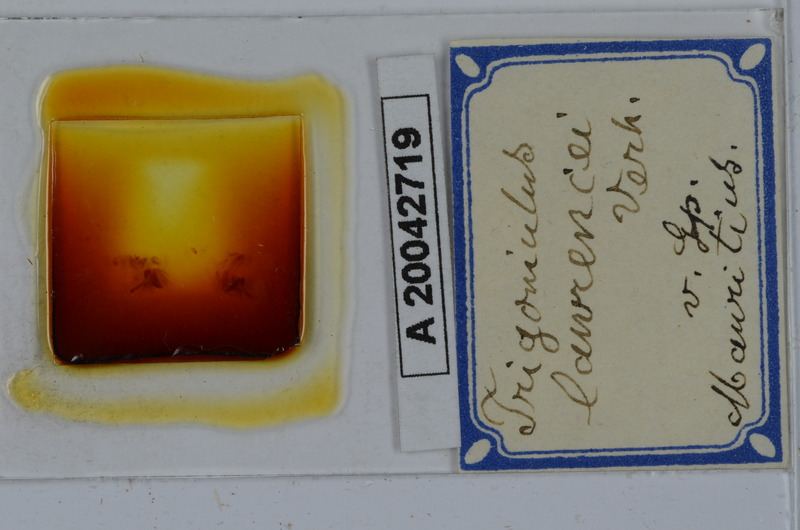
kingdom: Animalia
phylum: Arthropoda
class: Diplopoda
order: Spirobolida
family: Pachybolidae
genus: Leptogoniulus
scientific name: Leptogoniulus sorornus
